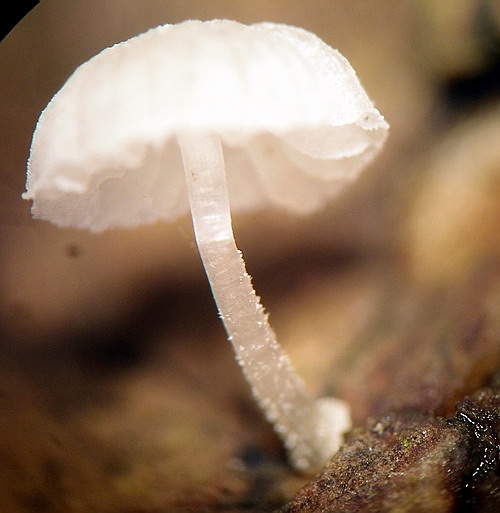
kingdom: Fungi
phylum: Basidiomycota
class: Agaricomycetes
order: Agaricales
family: Porotheleaceae
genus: Phloeomana
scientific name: Phloeomana speirea
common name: kvist-huesvamp
